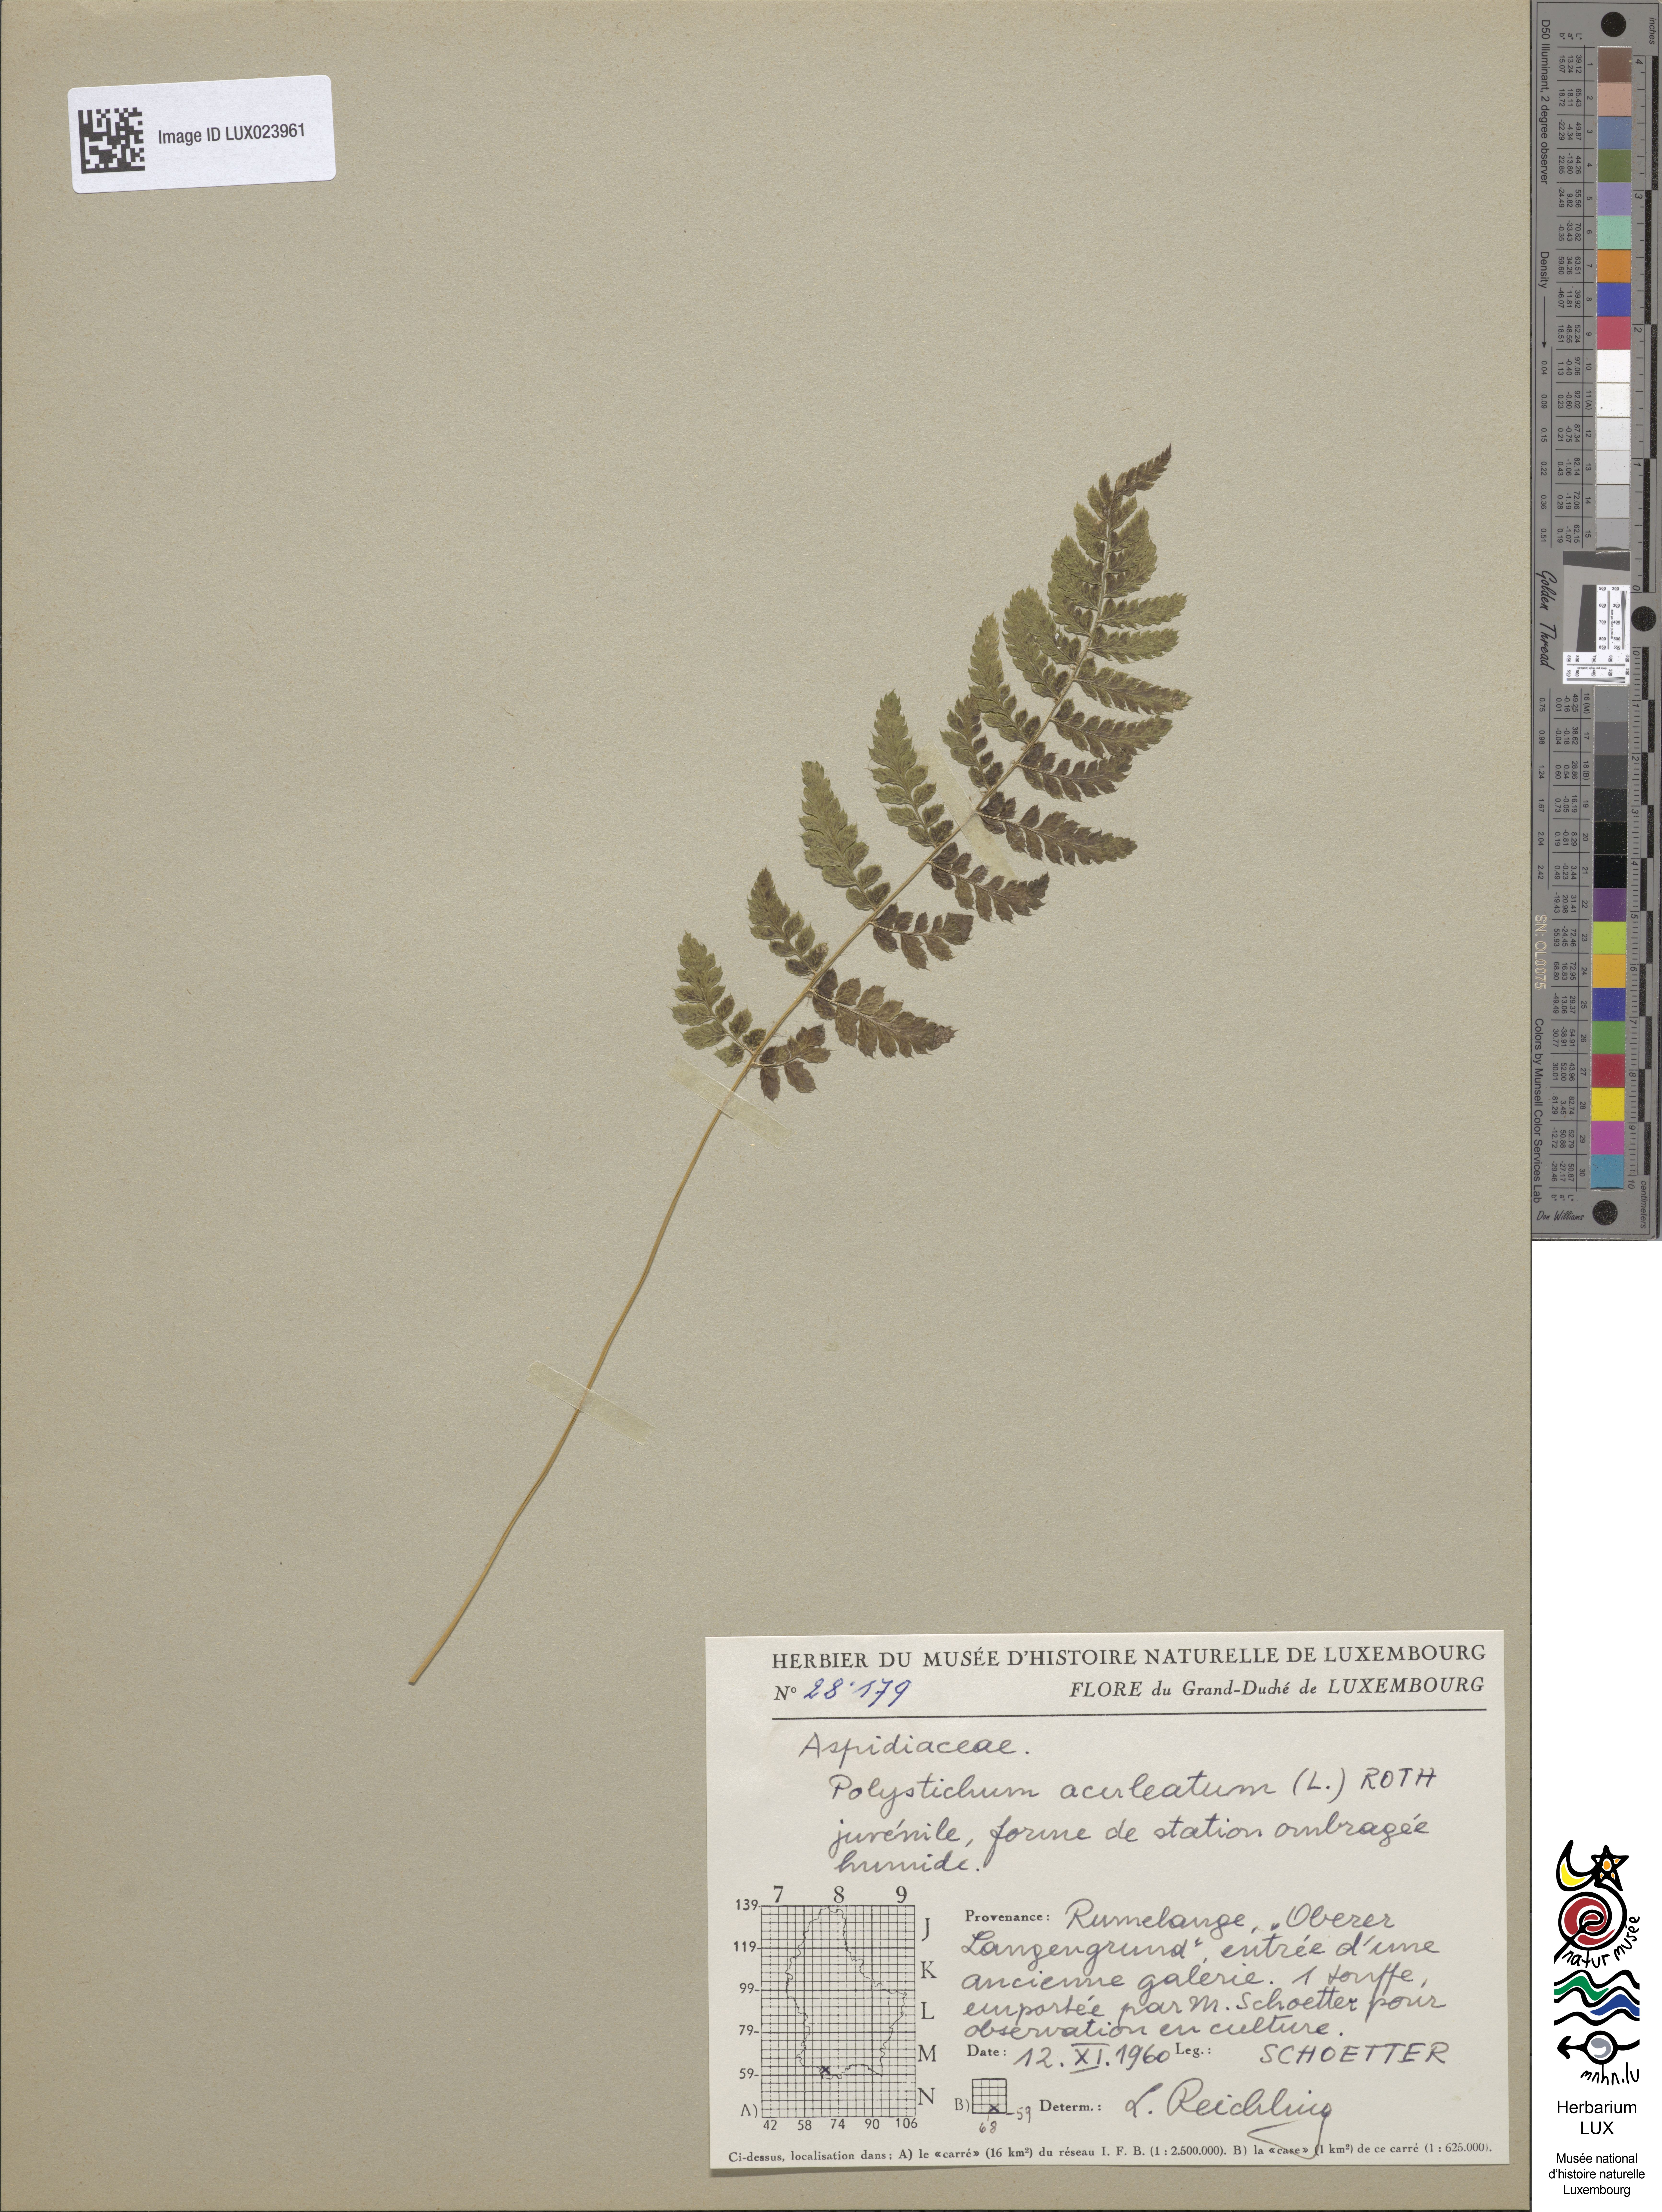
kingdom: Plantae
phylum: Tracheophyta
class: Polypodiopsida
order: Polypodiales
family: Dryopteridaceae
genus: Polystichum
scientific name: Polystichum aculeatum
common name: Hard shield-fern
